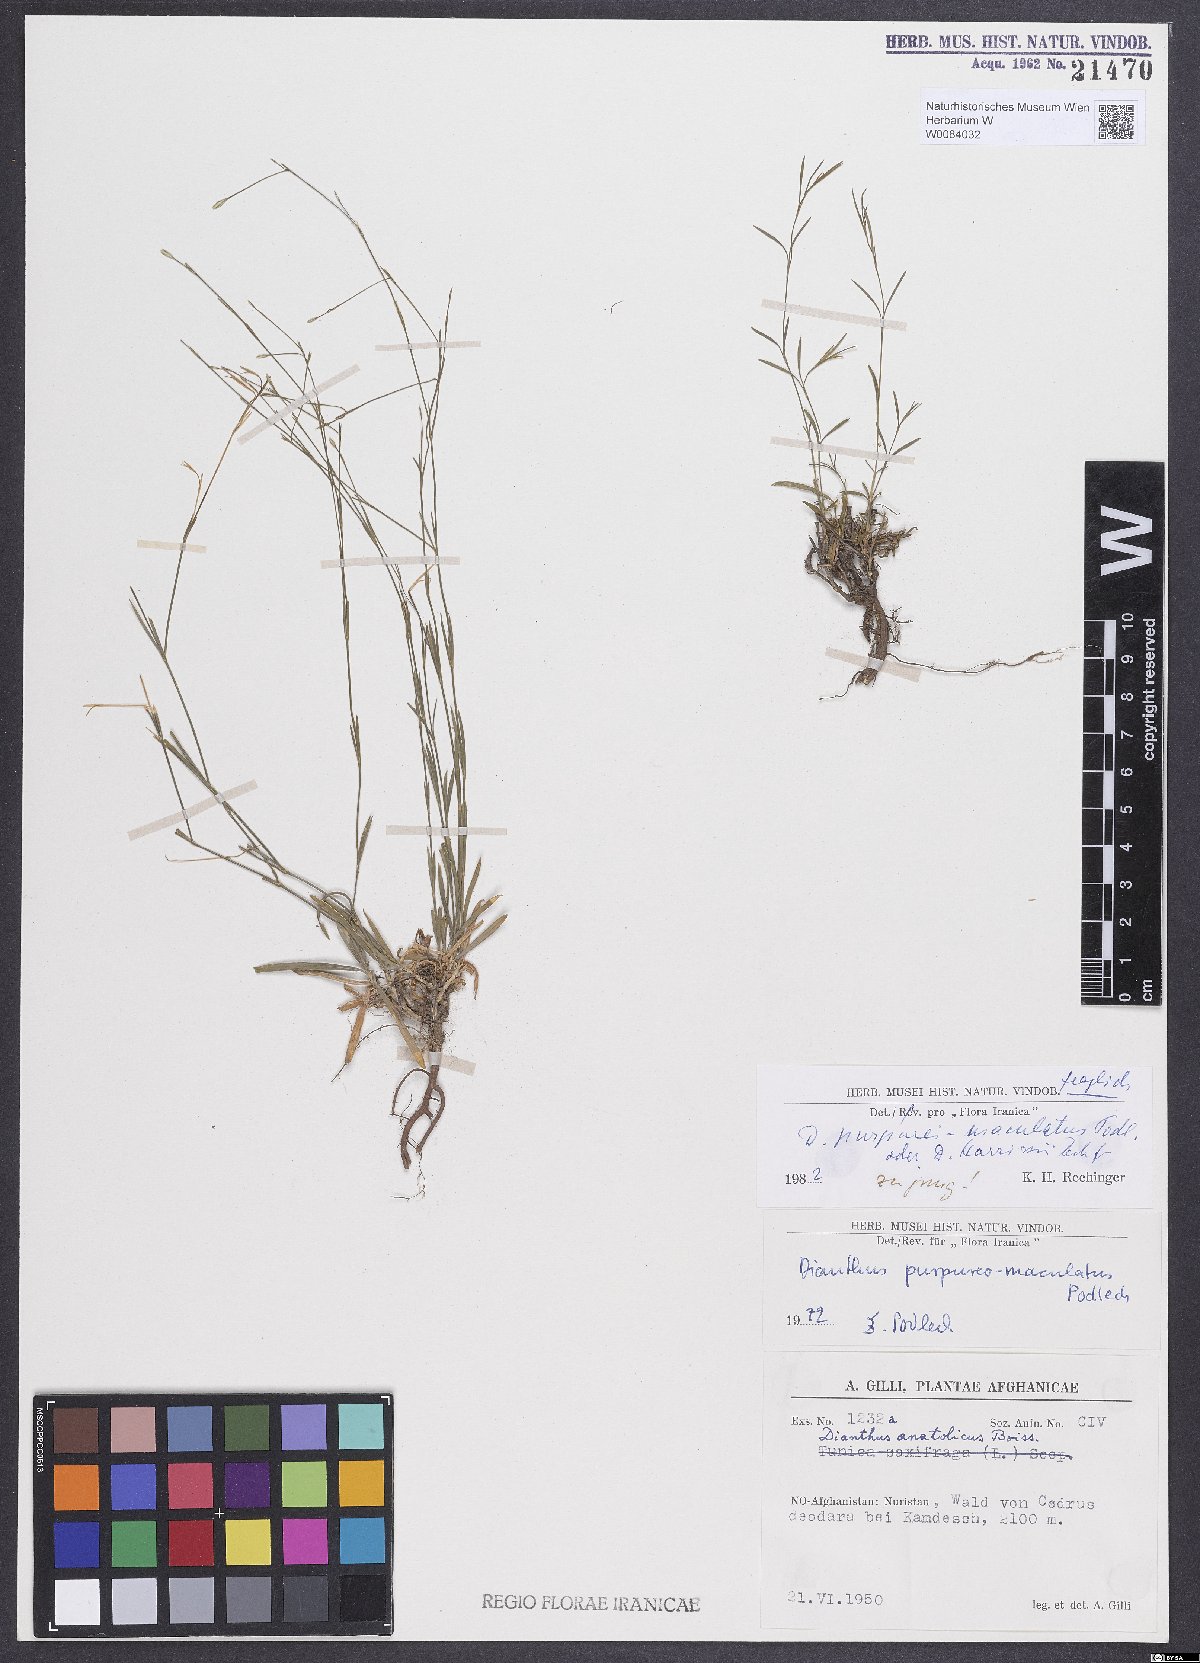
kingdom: Plantae
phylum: Tracheophyta
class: Magnoliopsida
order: Caryophyllales
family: Caryophyllaceae
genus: Dianthus
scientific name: Dianthus
